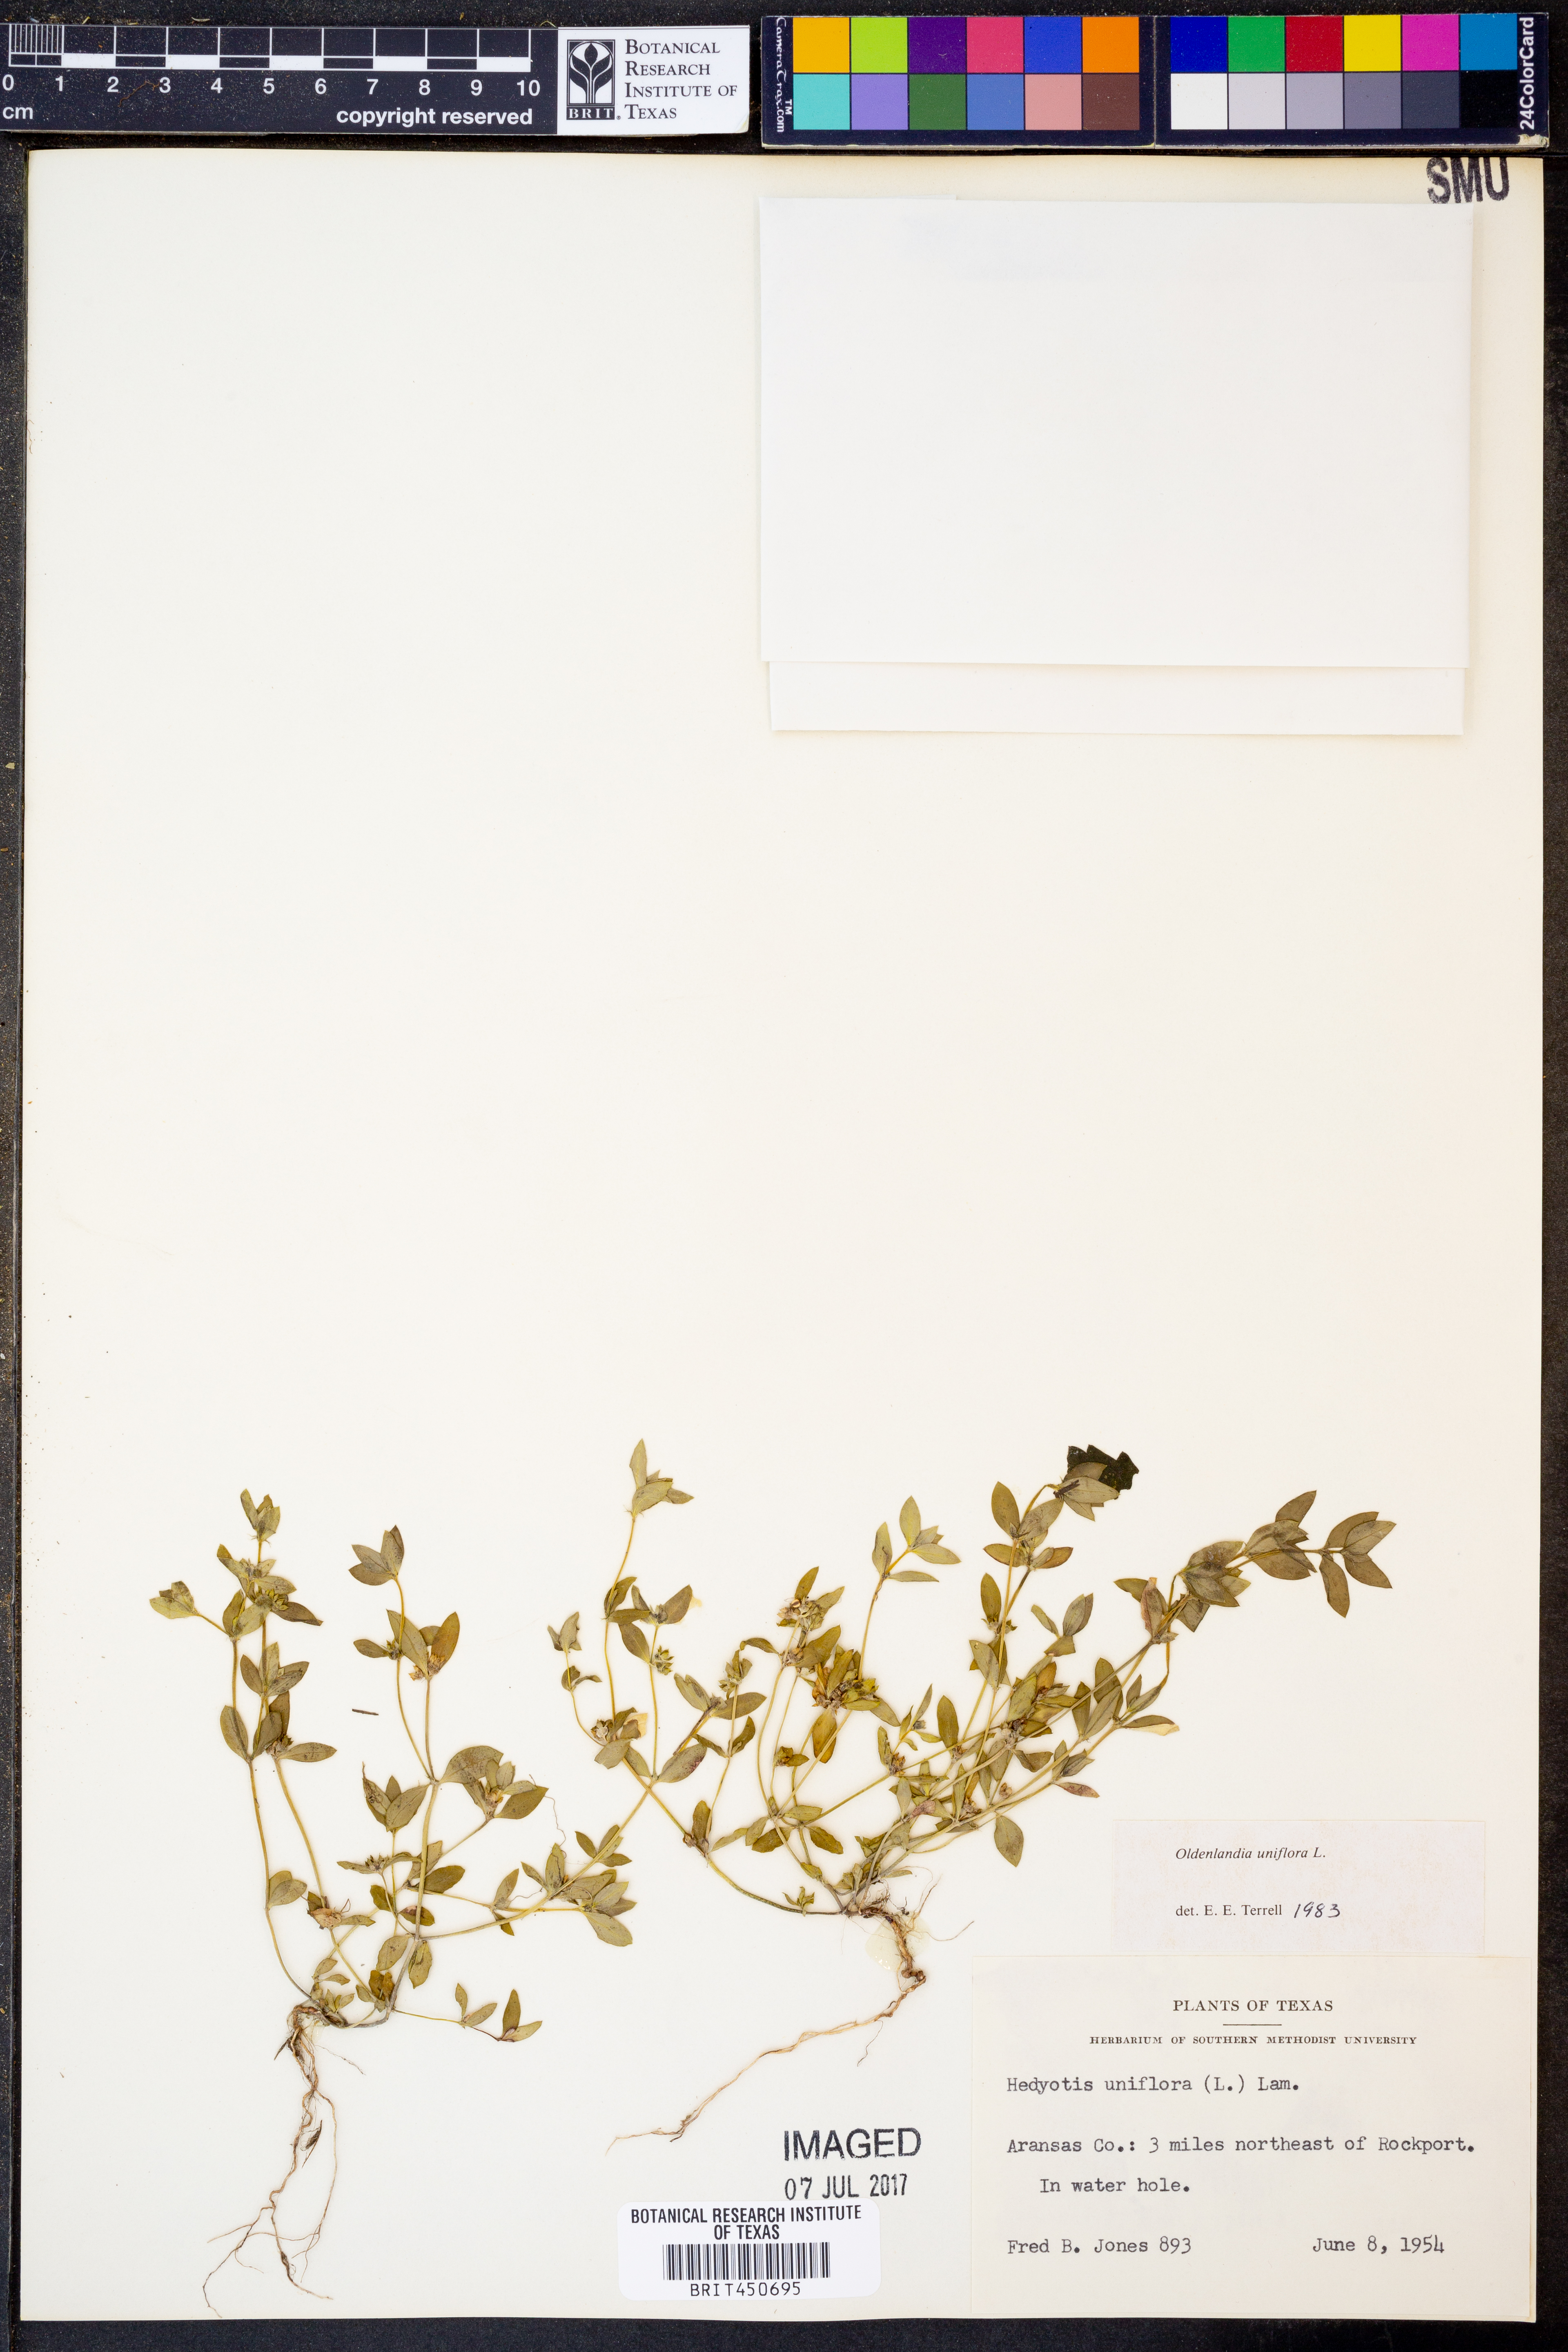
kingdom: Plantae
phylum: Tracheophyta
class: Magnoliopsida
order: Gentianales
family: Rubiaceae
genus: Edrastima
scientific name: Edrastima uniflora
